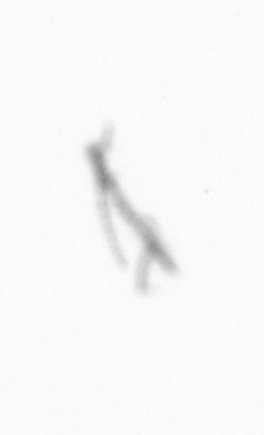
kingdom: Chromista
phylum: Ochrophyta
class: Bacillariophyceae
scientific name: Bacillariophyceae
